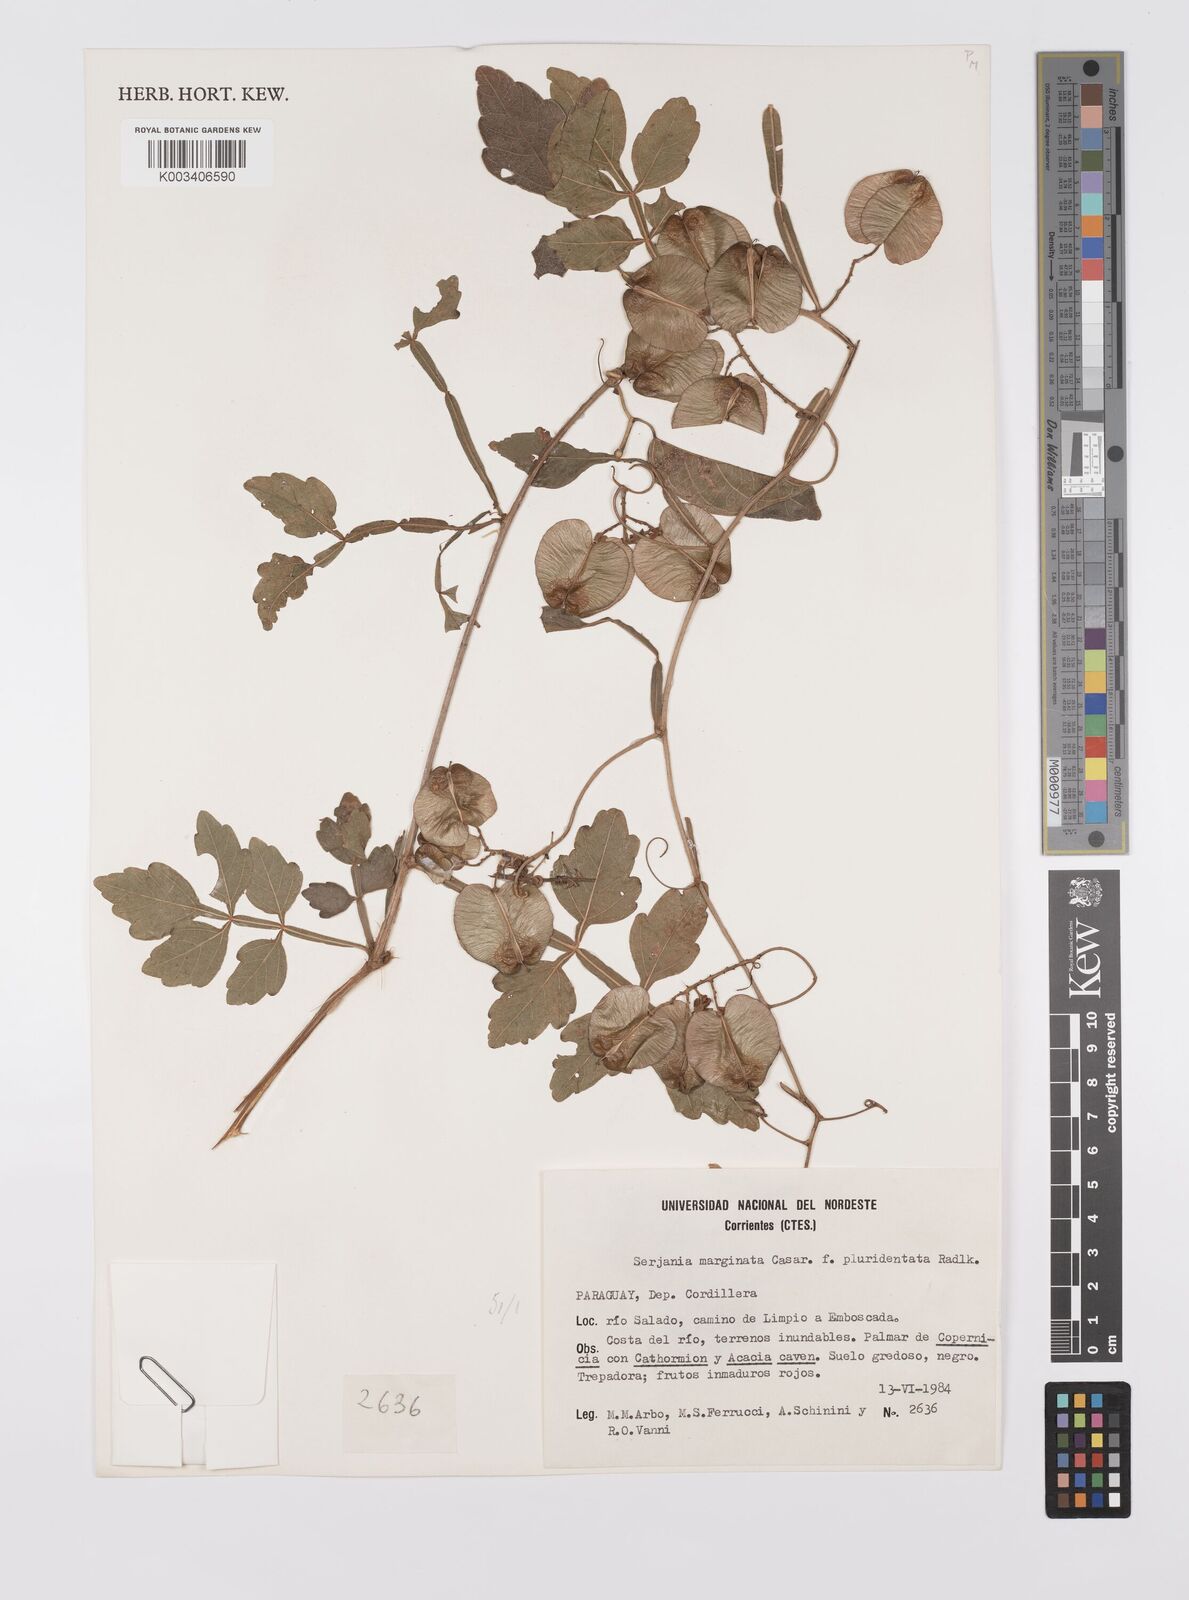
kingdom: Plantae
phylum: Tracheophyta
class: Magnoliopsida
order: Sapindales
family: Sapindaceae
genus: Serjania
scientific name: Serjania marginata
